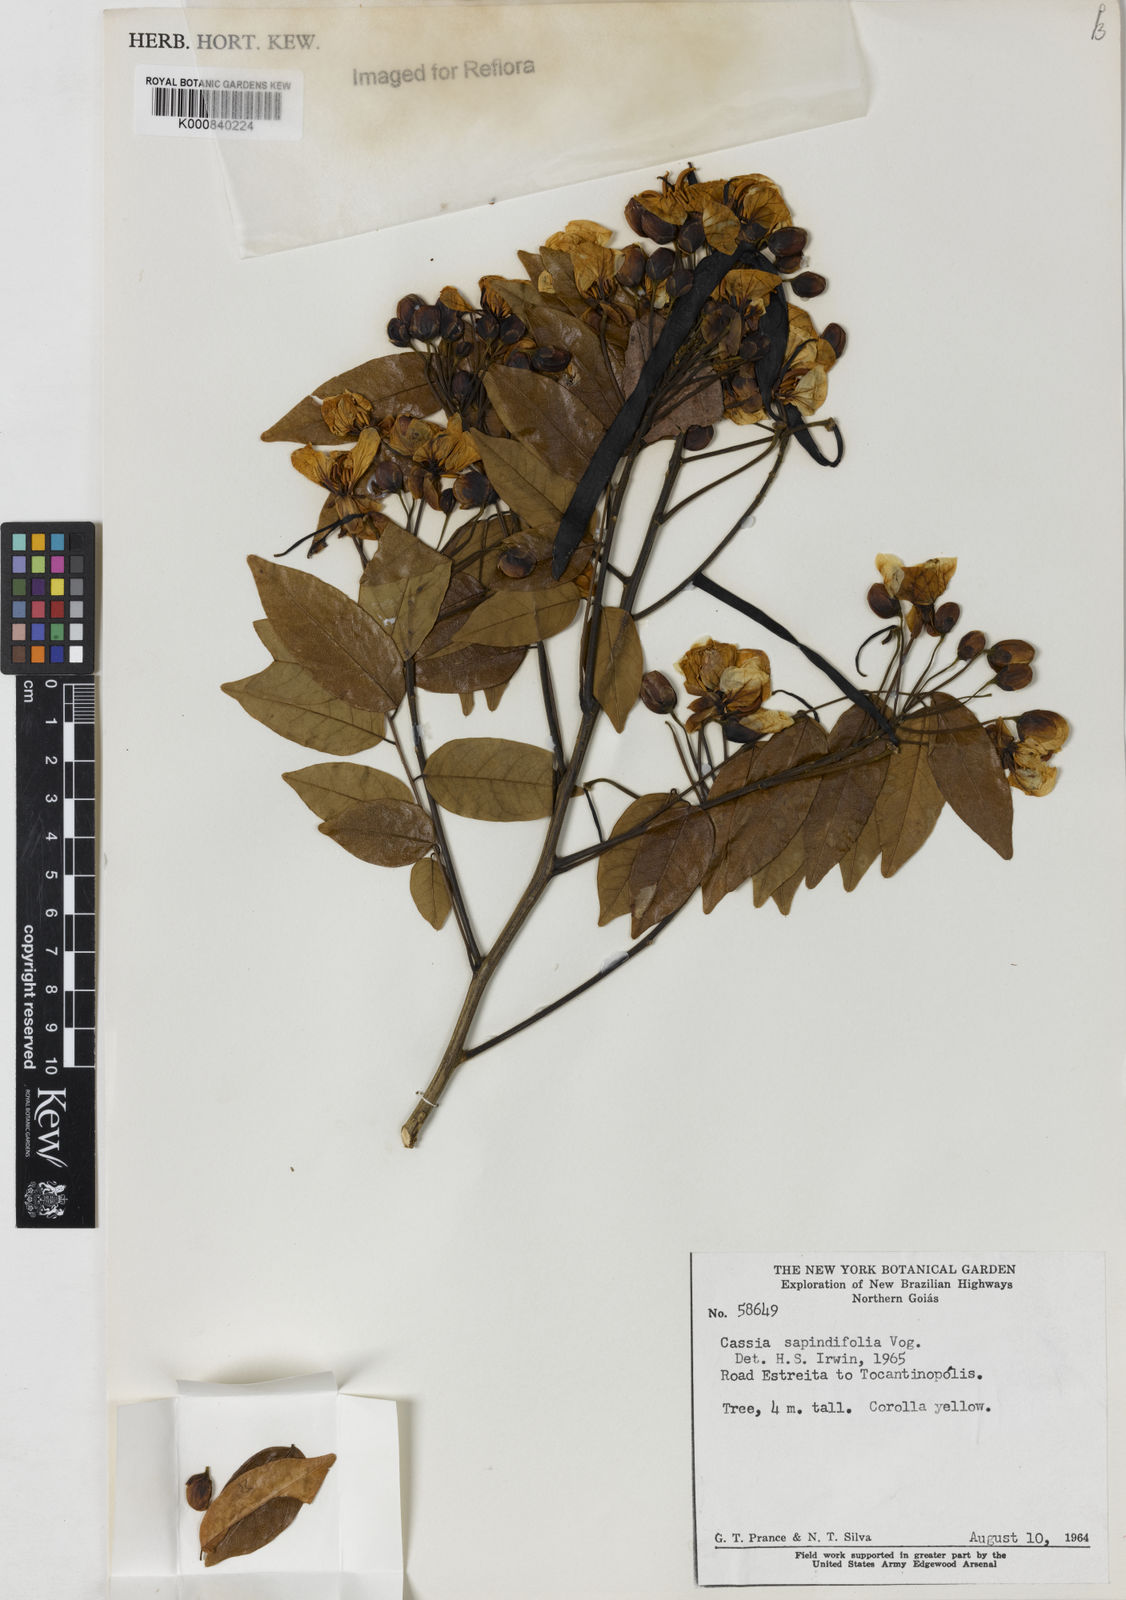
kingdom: Plantae
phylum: Tracheophyta
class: Magnoliopsida
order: Fabales
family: Fabaceae
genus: Senna
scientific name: Senna silvestris
